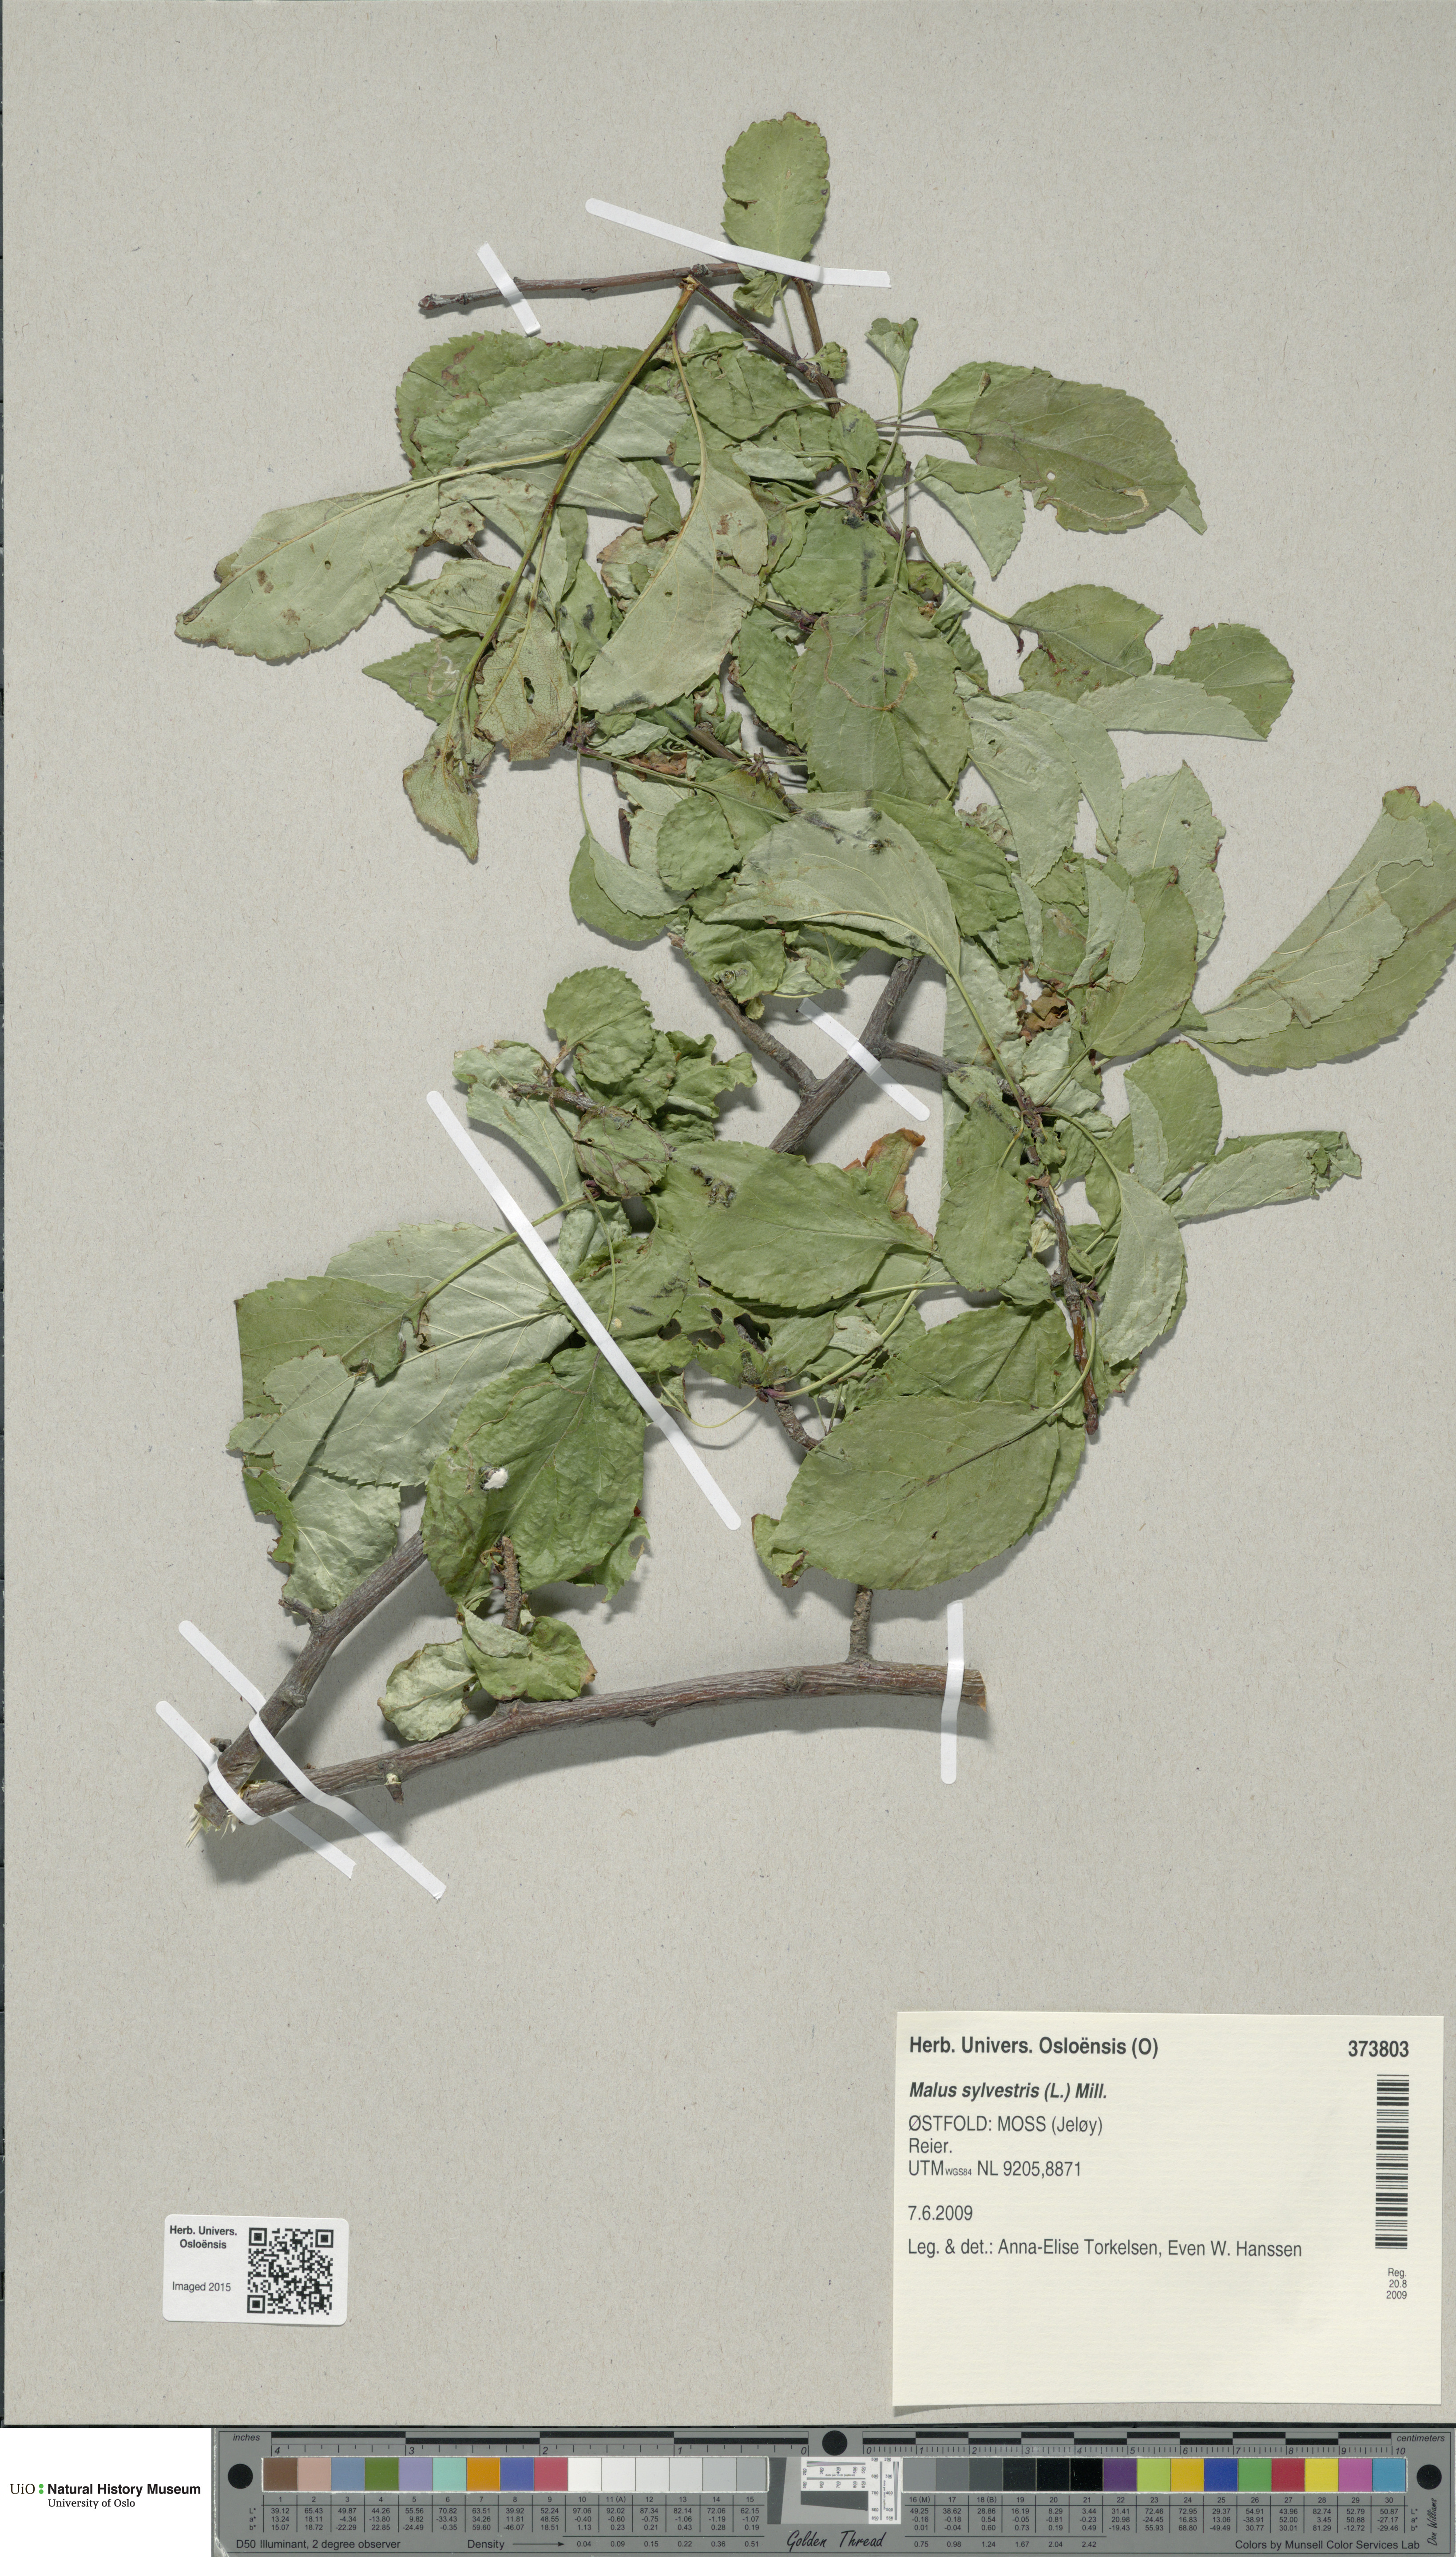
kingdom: Plantae
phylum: Tracheophyta
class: Magnoliopsida
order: Rosales
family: Rosaceae
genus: Malus
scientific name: Malus sylvestris
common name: Crab apple
